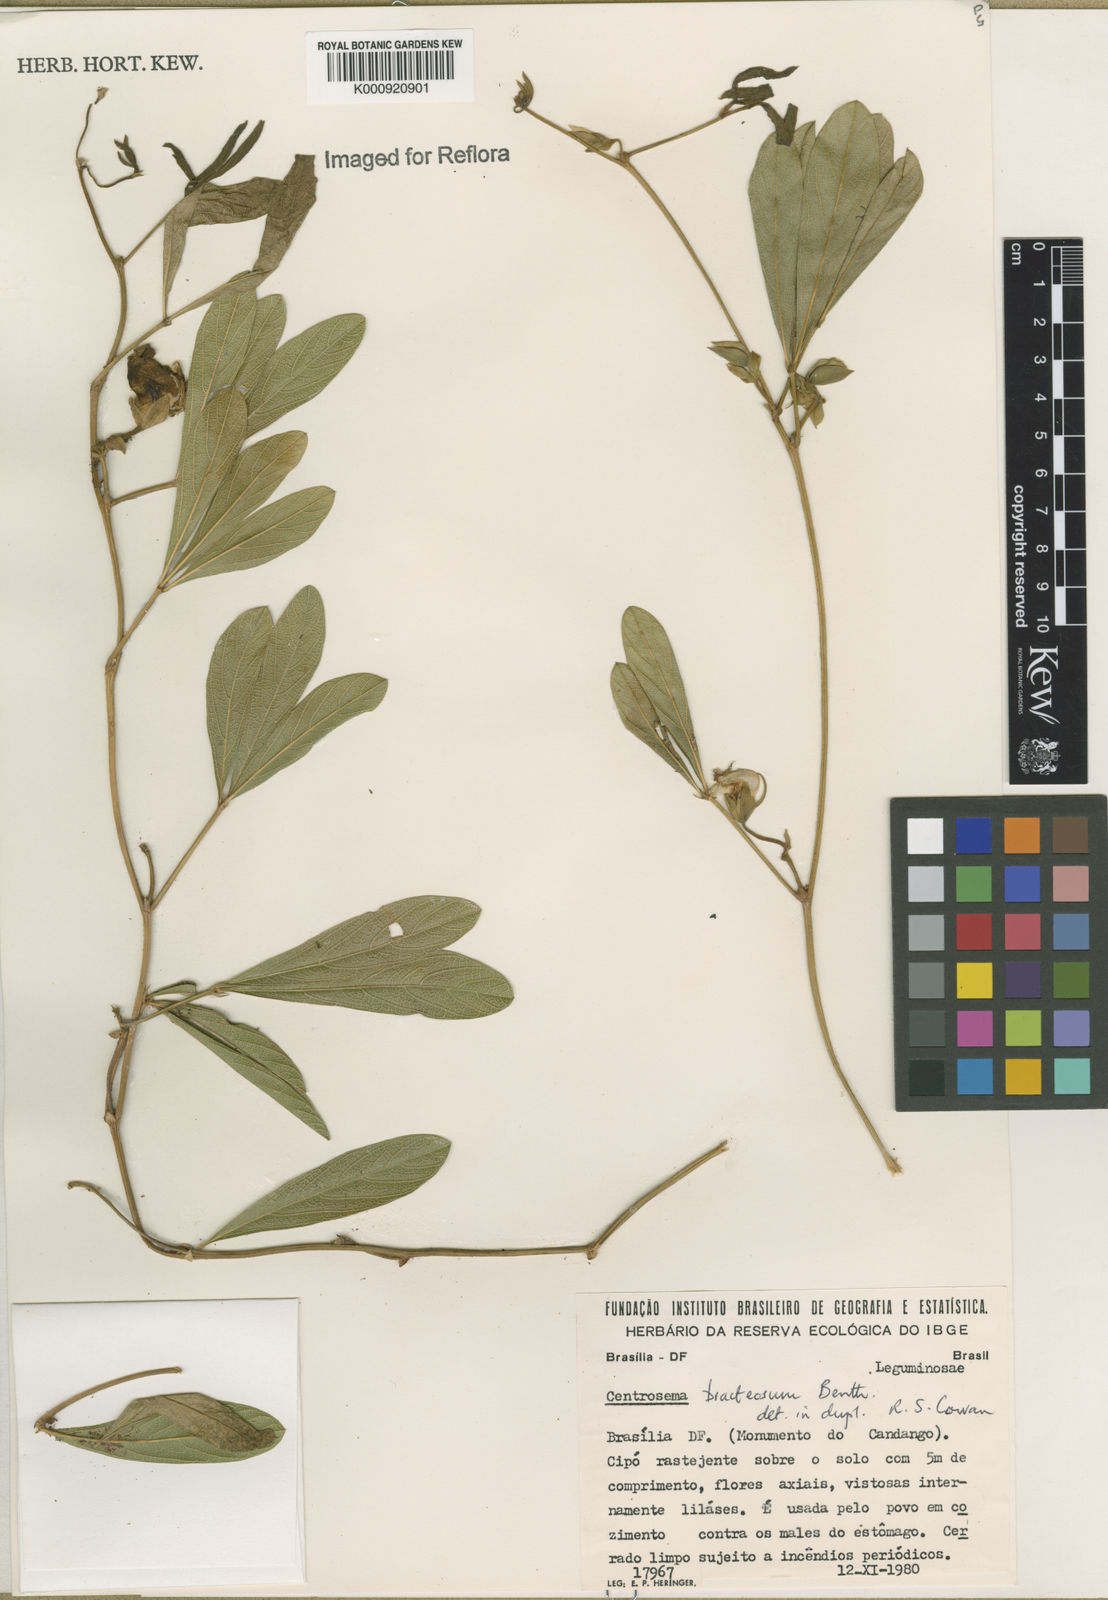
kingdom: Plantae
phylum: Tracheophyta
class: Magnoliopsida
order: Fabales
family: Fabaceae
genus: Centrosema
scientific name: Centrosema bracteosum
